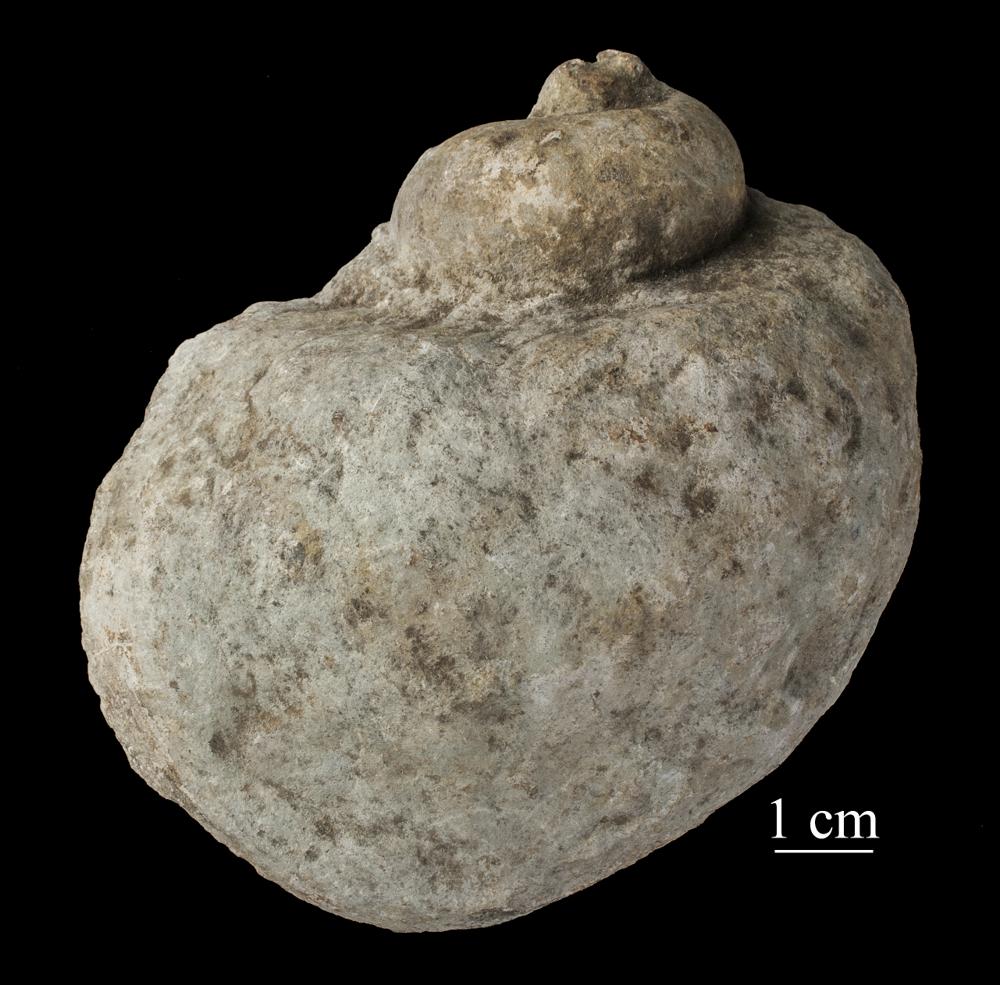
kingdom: Animalia
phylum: Mollusca
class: Gastropoda
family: Holopeidae
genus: Holopea
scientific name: Holopea ampullacea
